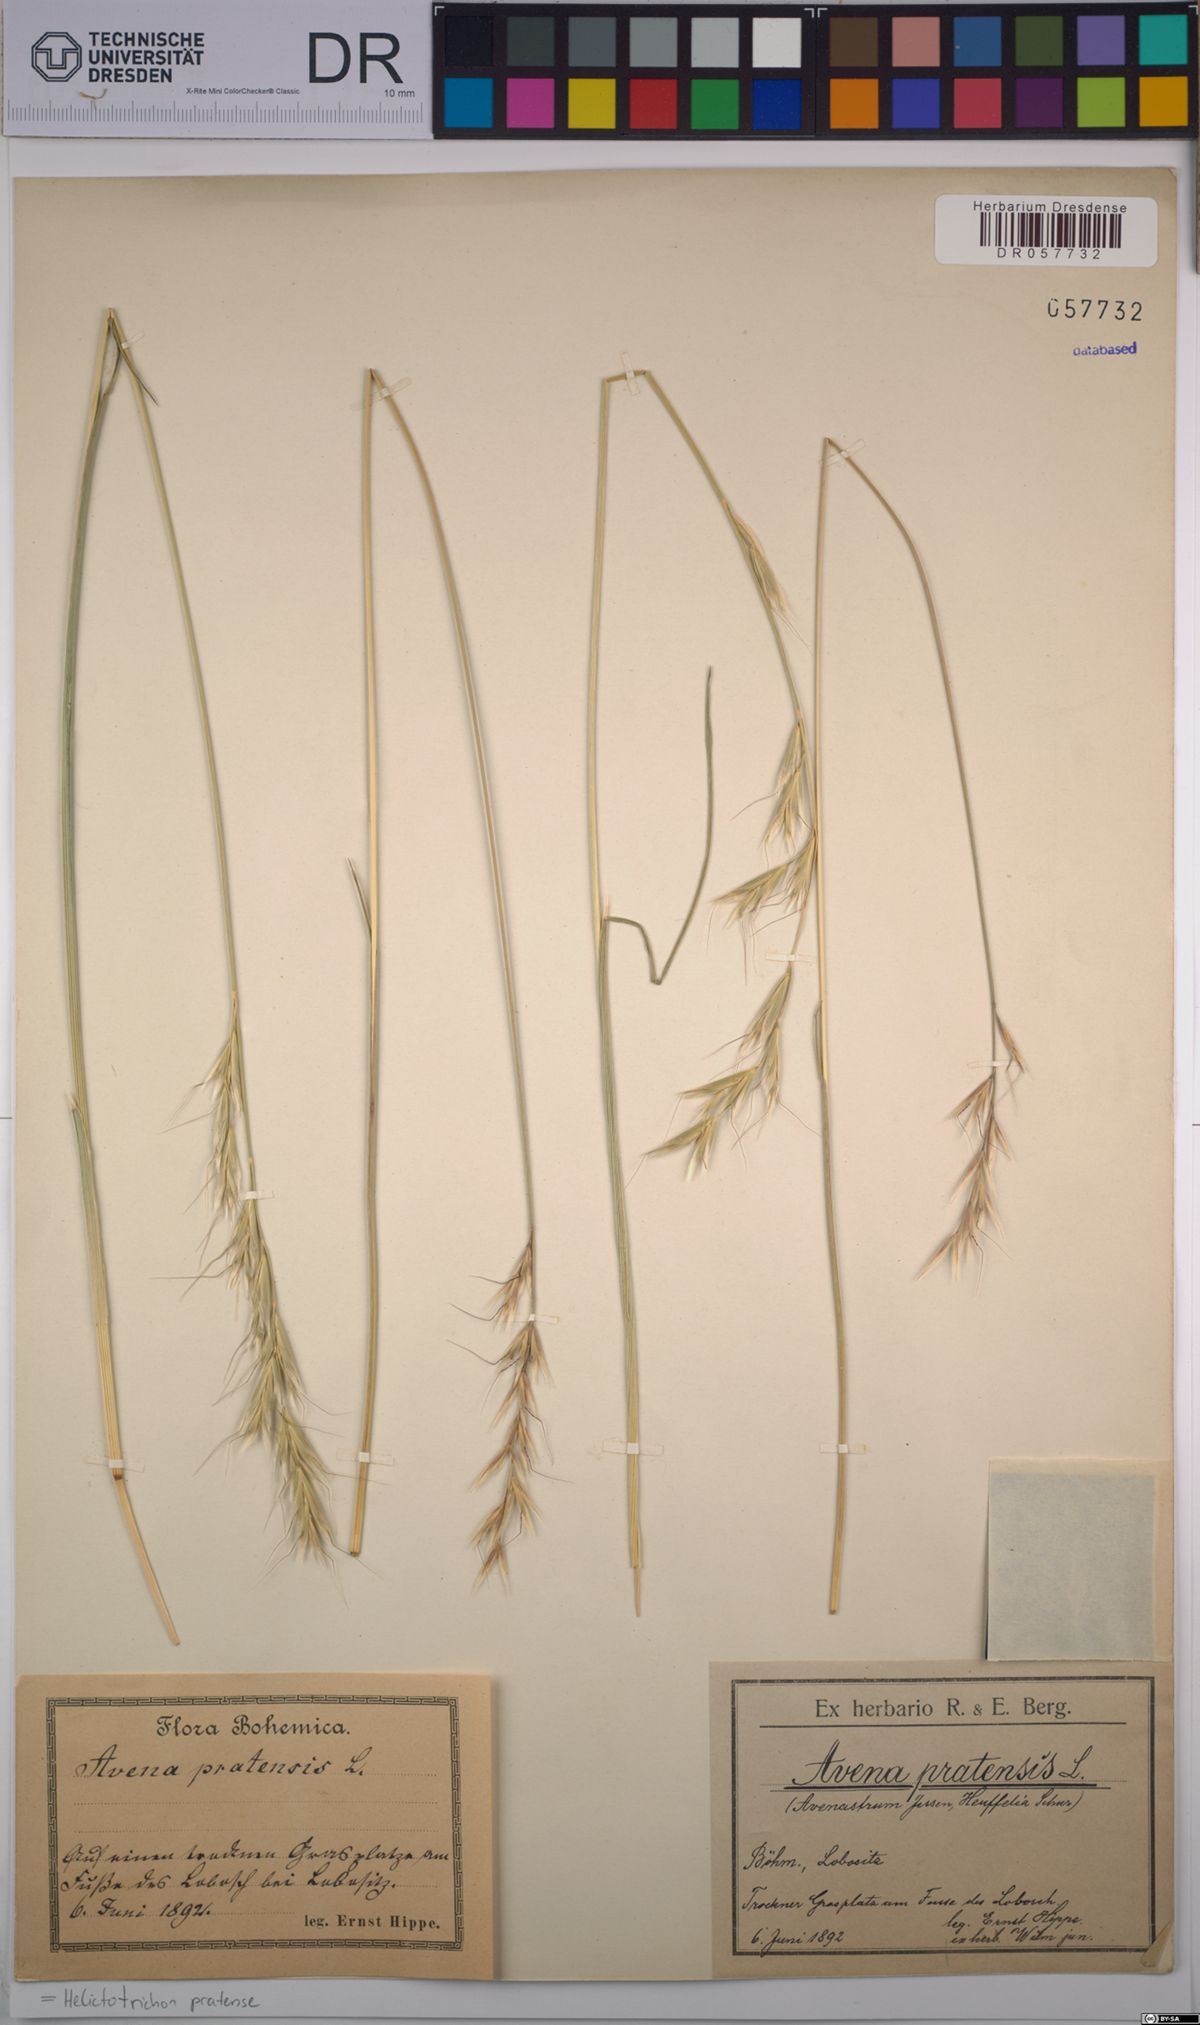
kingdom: Plantae
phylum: Tracheophyta
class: Liliopsida
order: Poales
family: Poaceae
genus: Helictochloa
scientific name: Helictochloa pratensis
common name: Meadow oat grass
